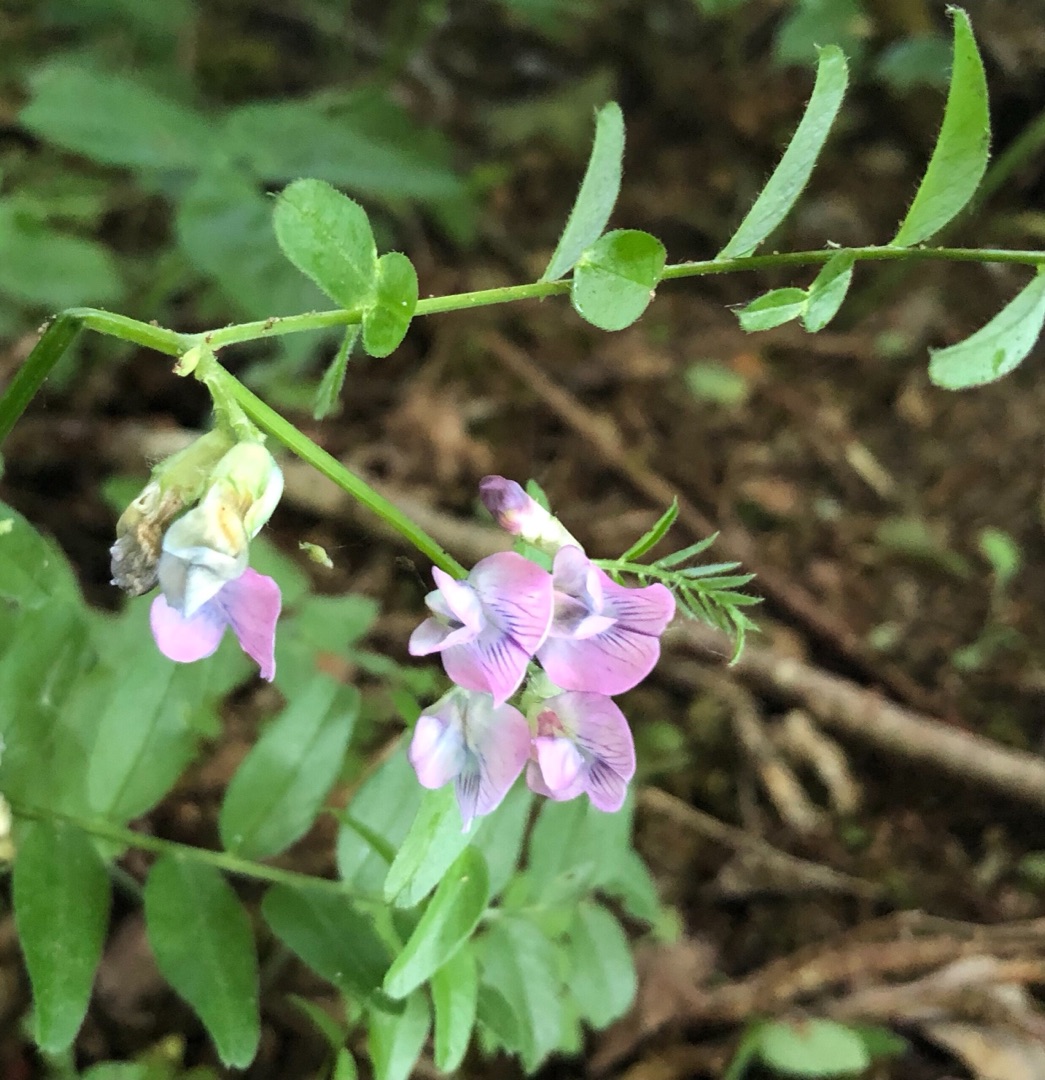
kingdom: Plantae
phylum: Tracheophyta
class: Magnoliopsida
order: Fabales
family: Fabaceae
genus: Vicia
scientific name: Vicia sylvatica
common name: Skov-vikke
